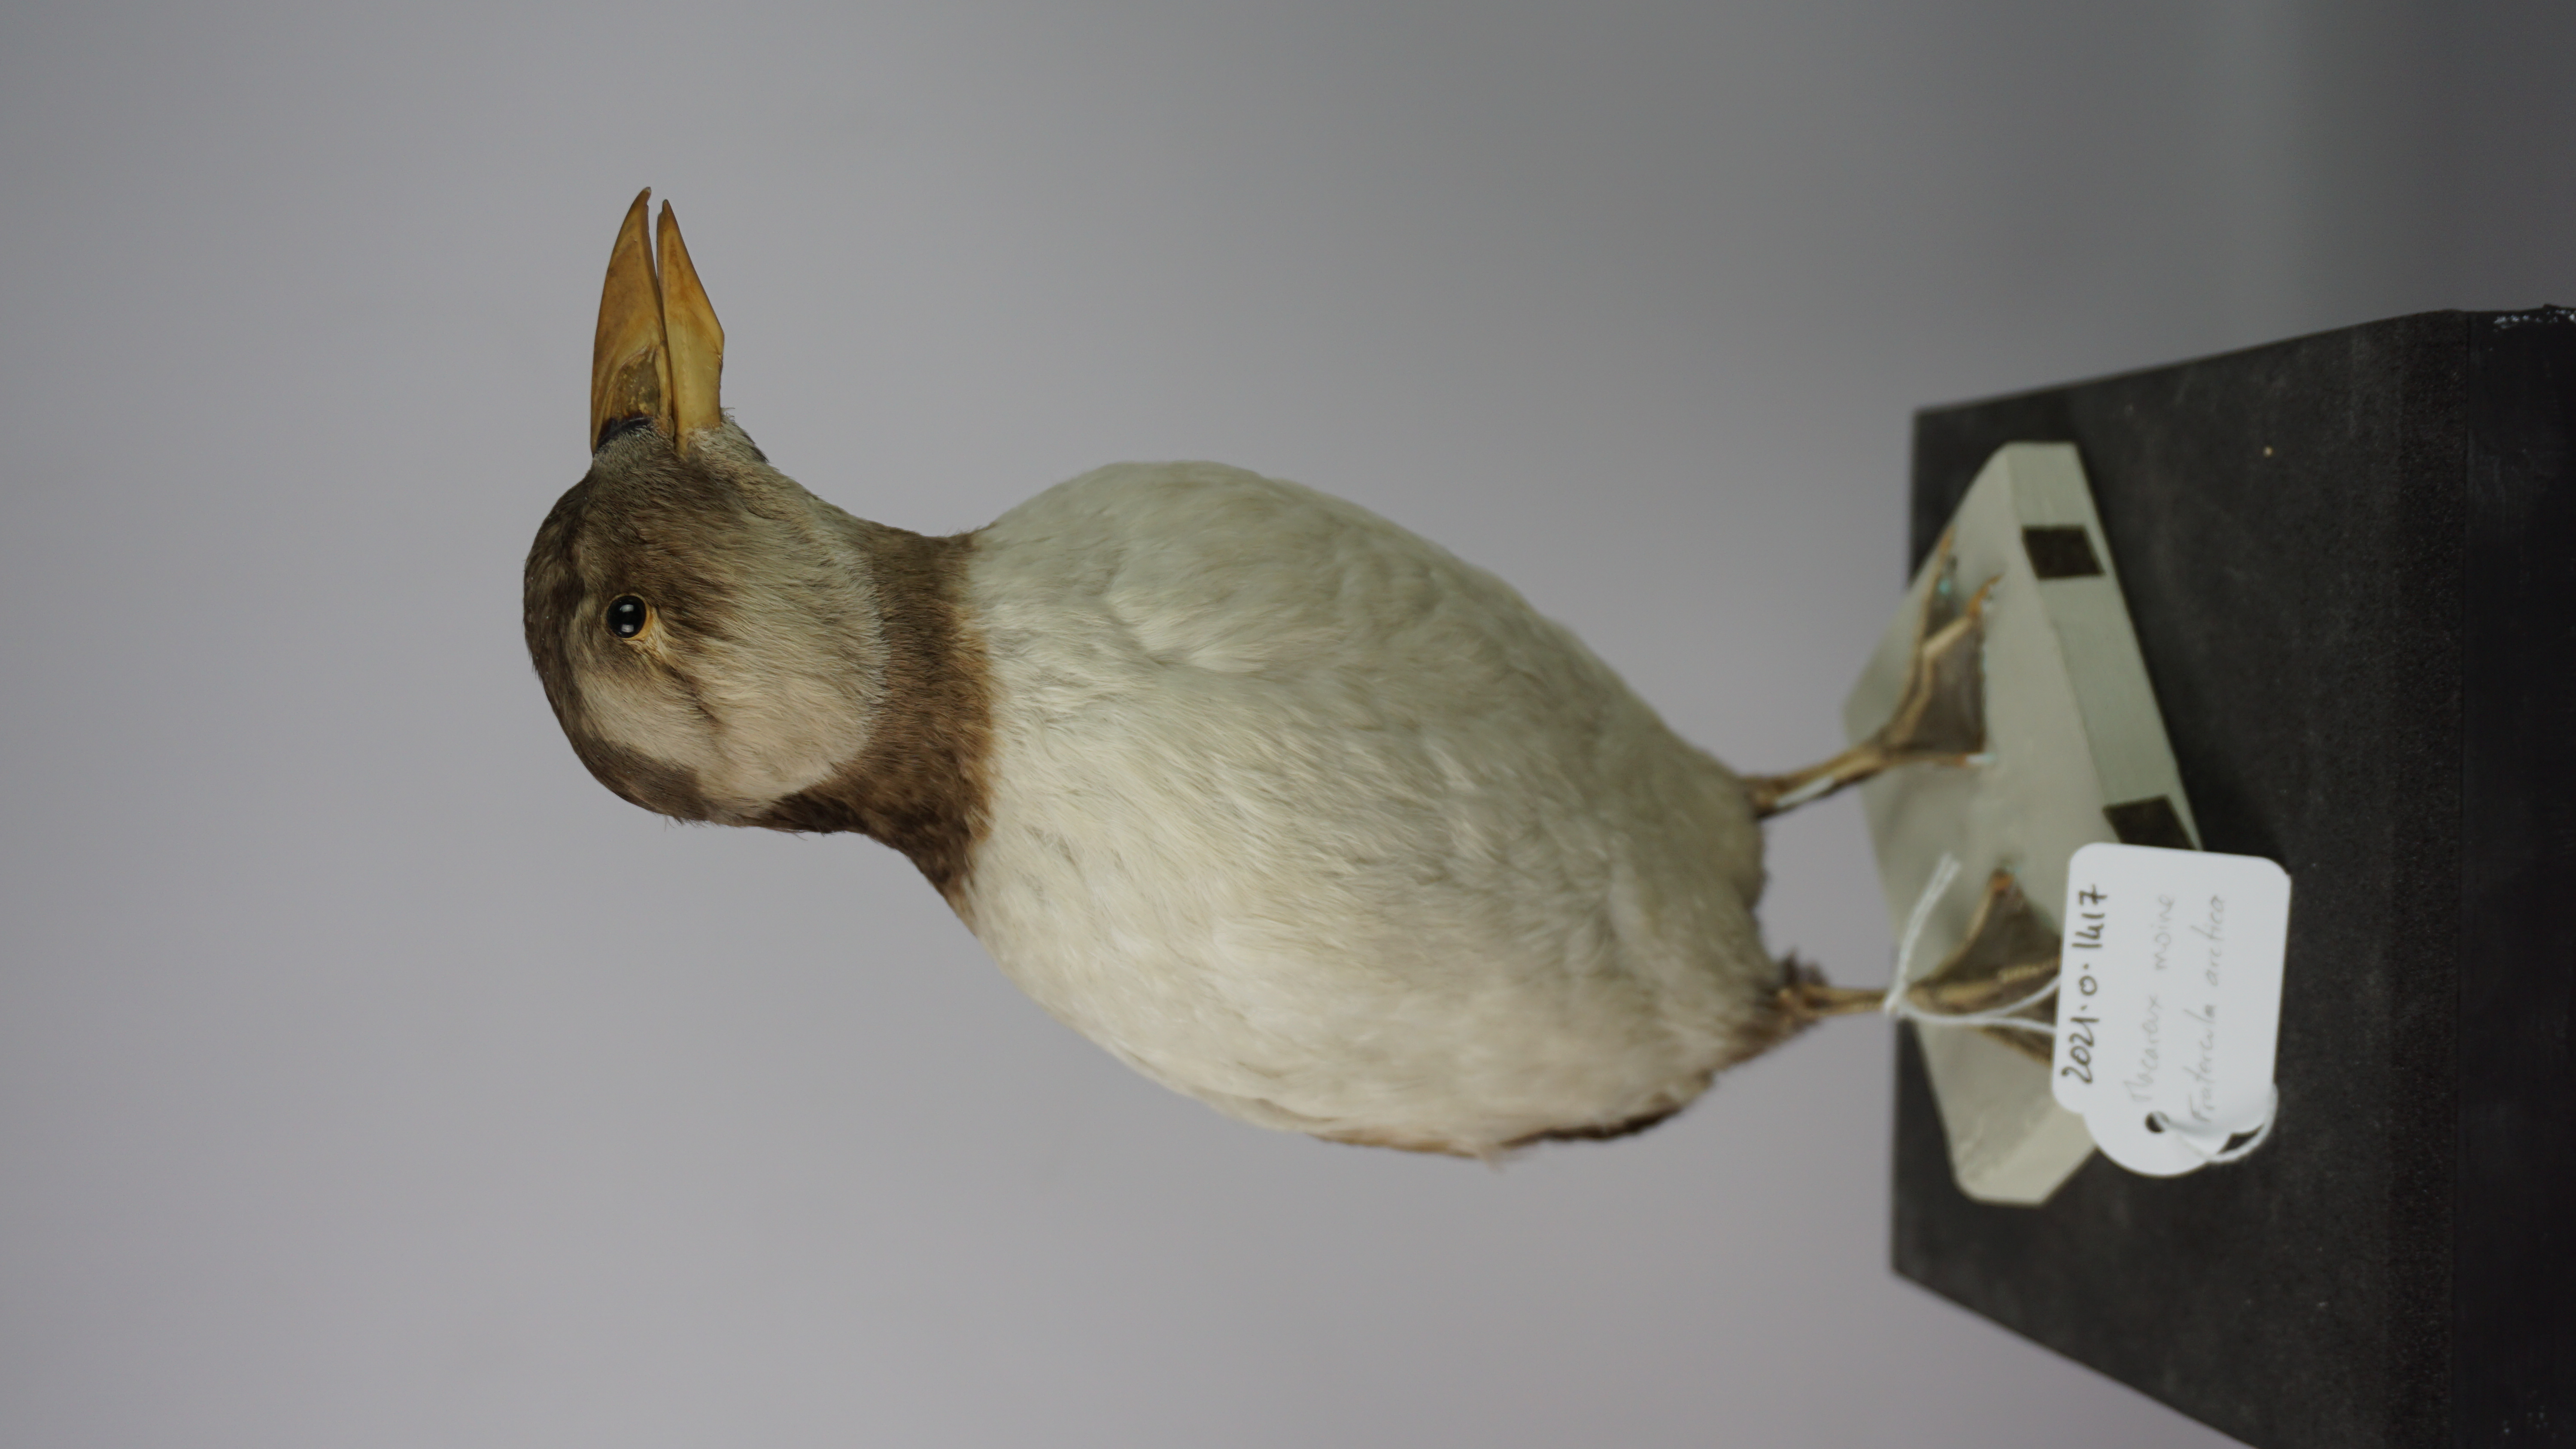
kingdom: Animalia
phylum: Chordata
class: Aves
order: Charadriiformes
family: Alcidae
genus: Fratercula
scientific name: Fratercula arctica
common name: Atlantic puffin
